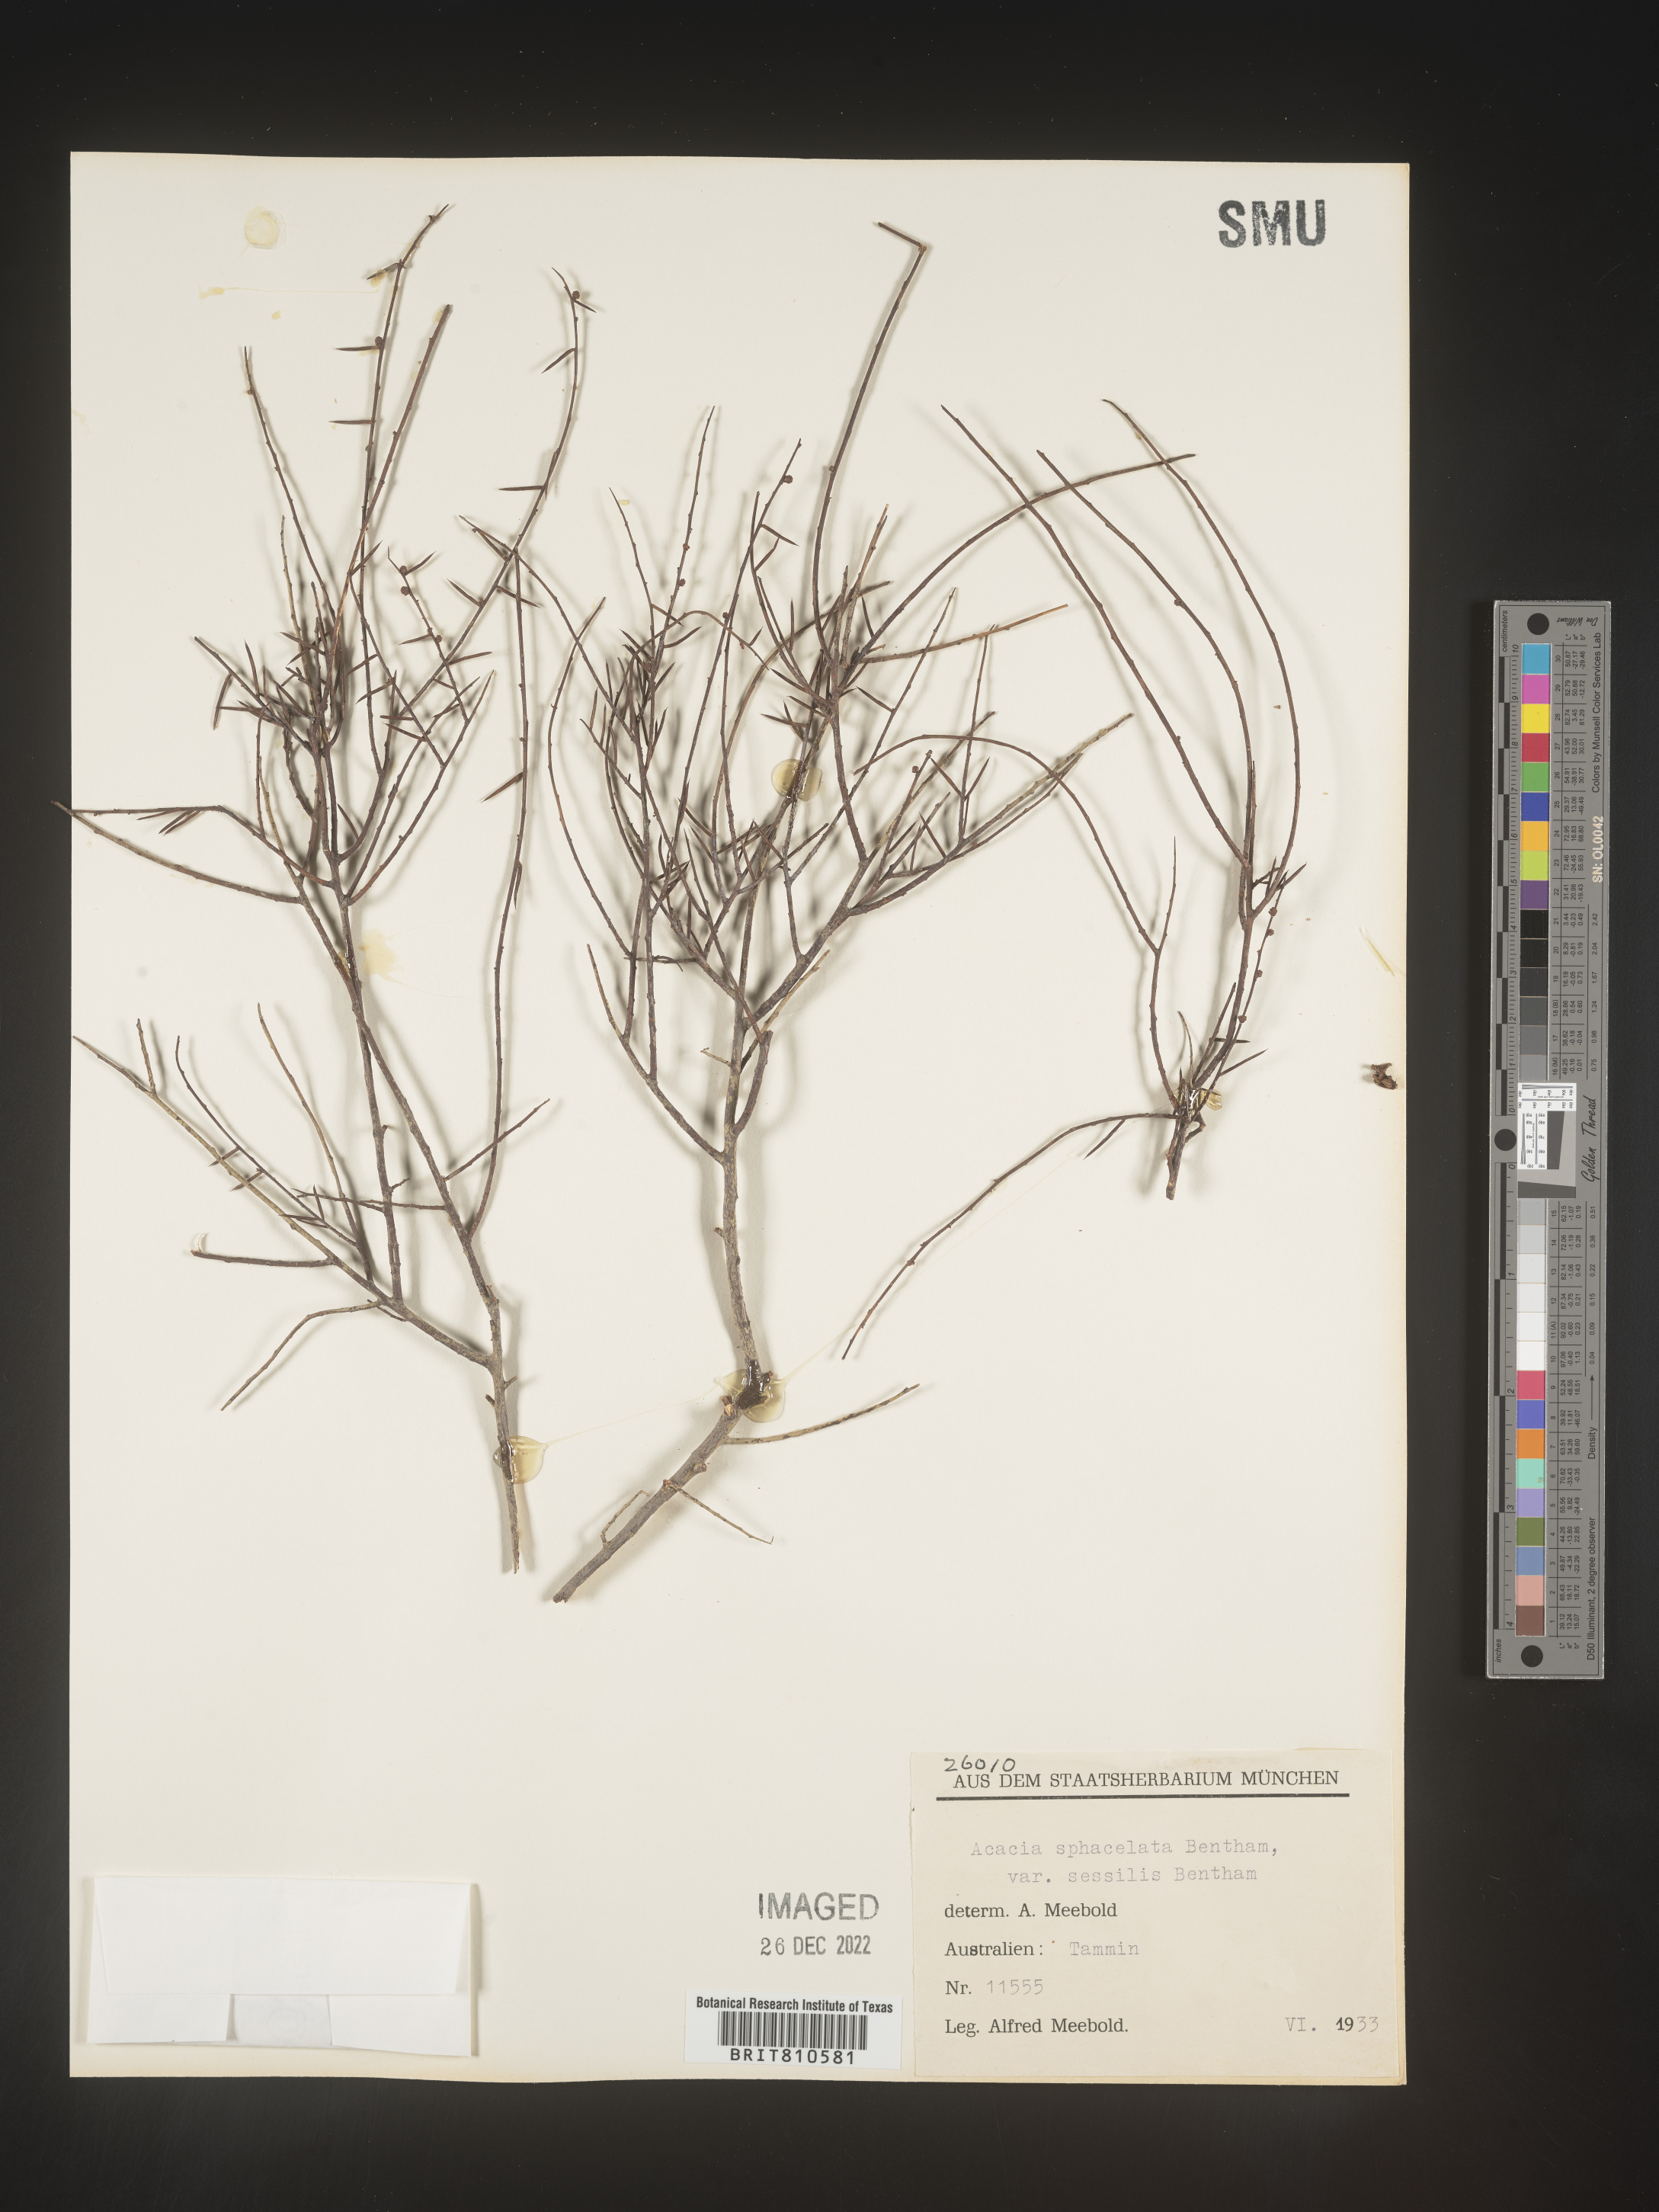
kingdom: Plantae
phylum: Tracheophyta
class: Magnoliopsida
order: Fabales
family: Fabaceae
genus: Acacia
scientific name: Acacia
